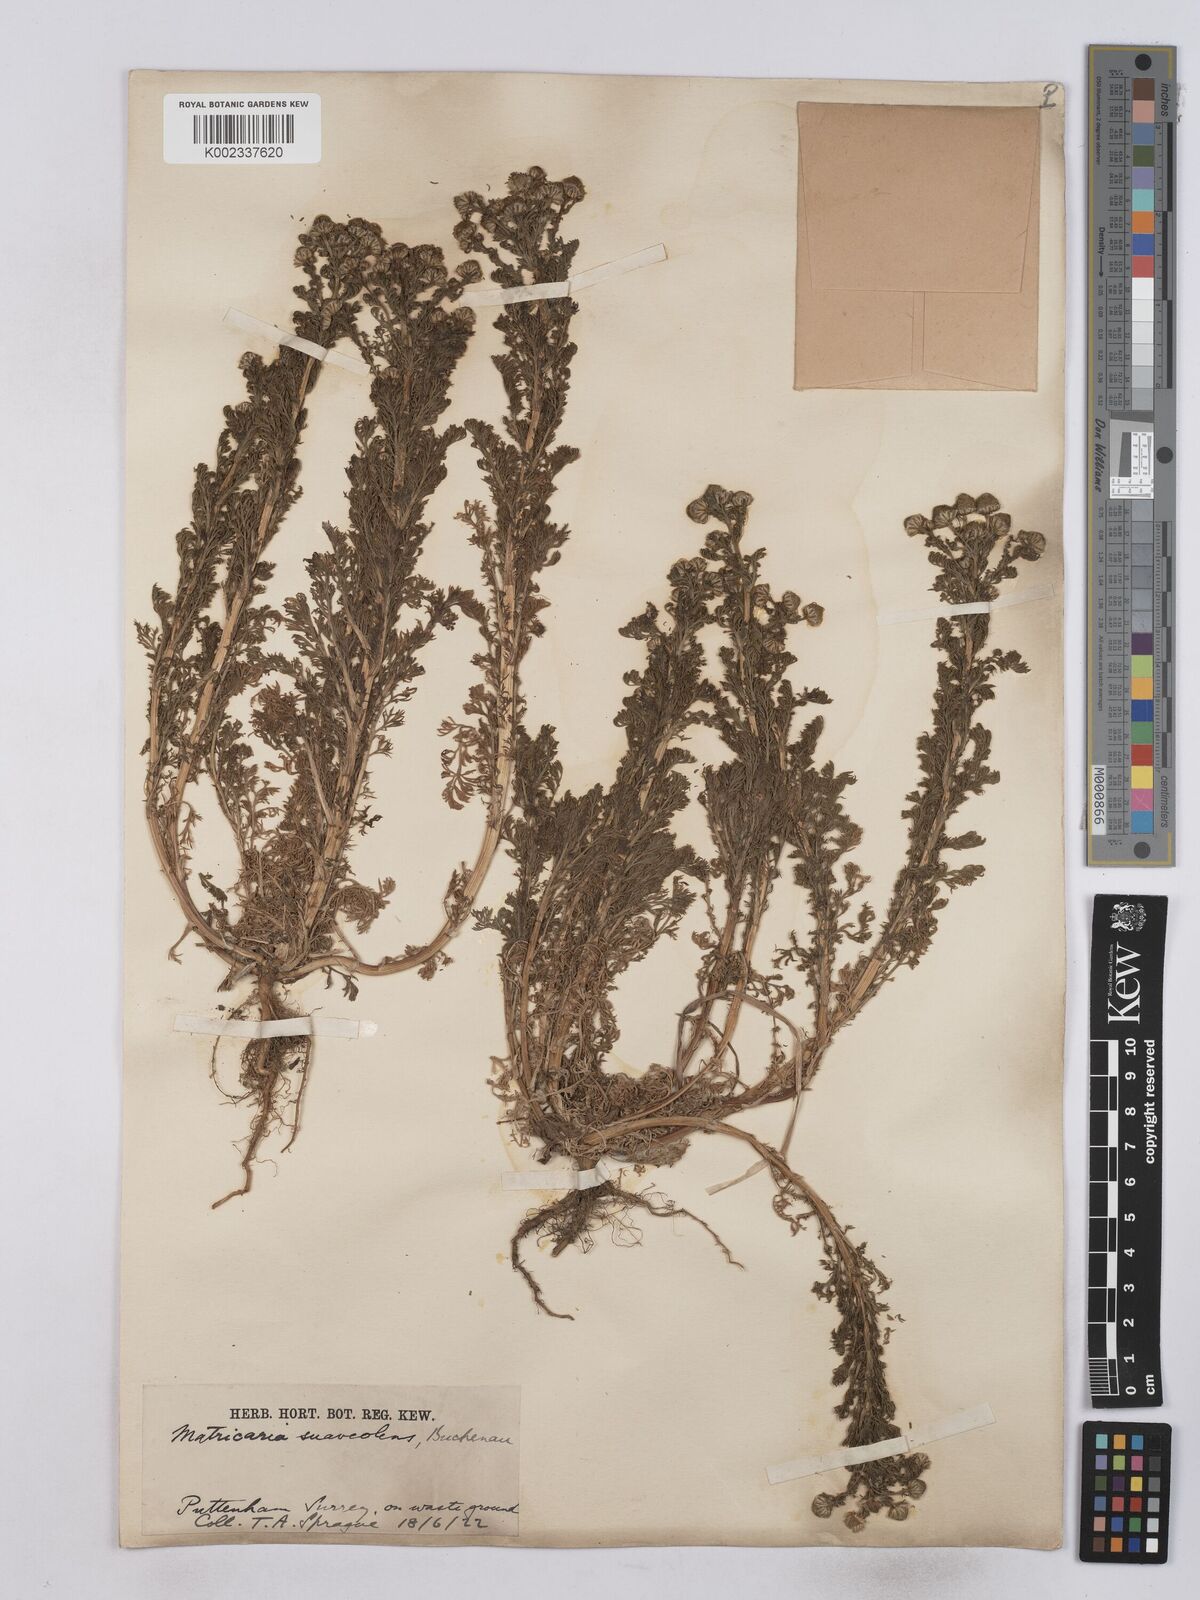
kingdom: Plantae
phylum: Tracheophyta
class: Magnoliopsida
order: Asterales
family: Asteraceae
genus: Matricaria
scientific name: Matricaria discoidea
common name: Disc mayweed
